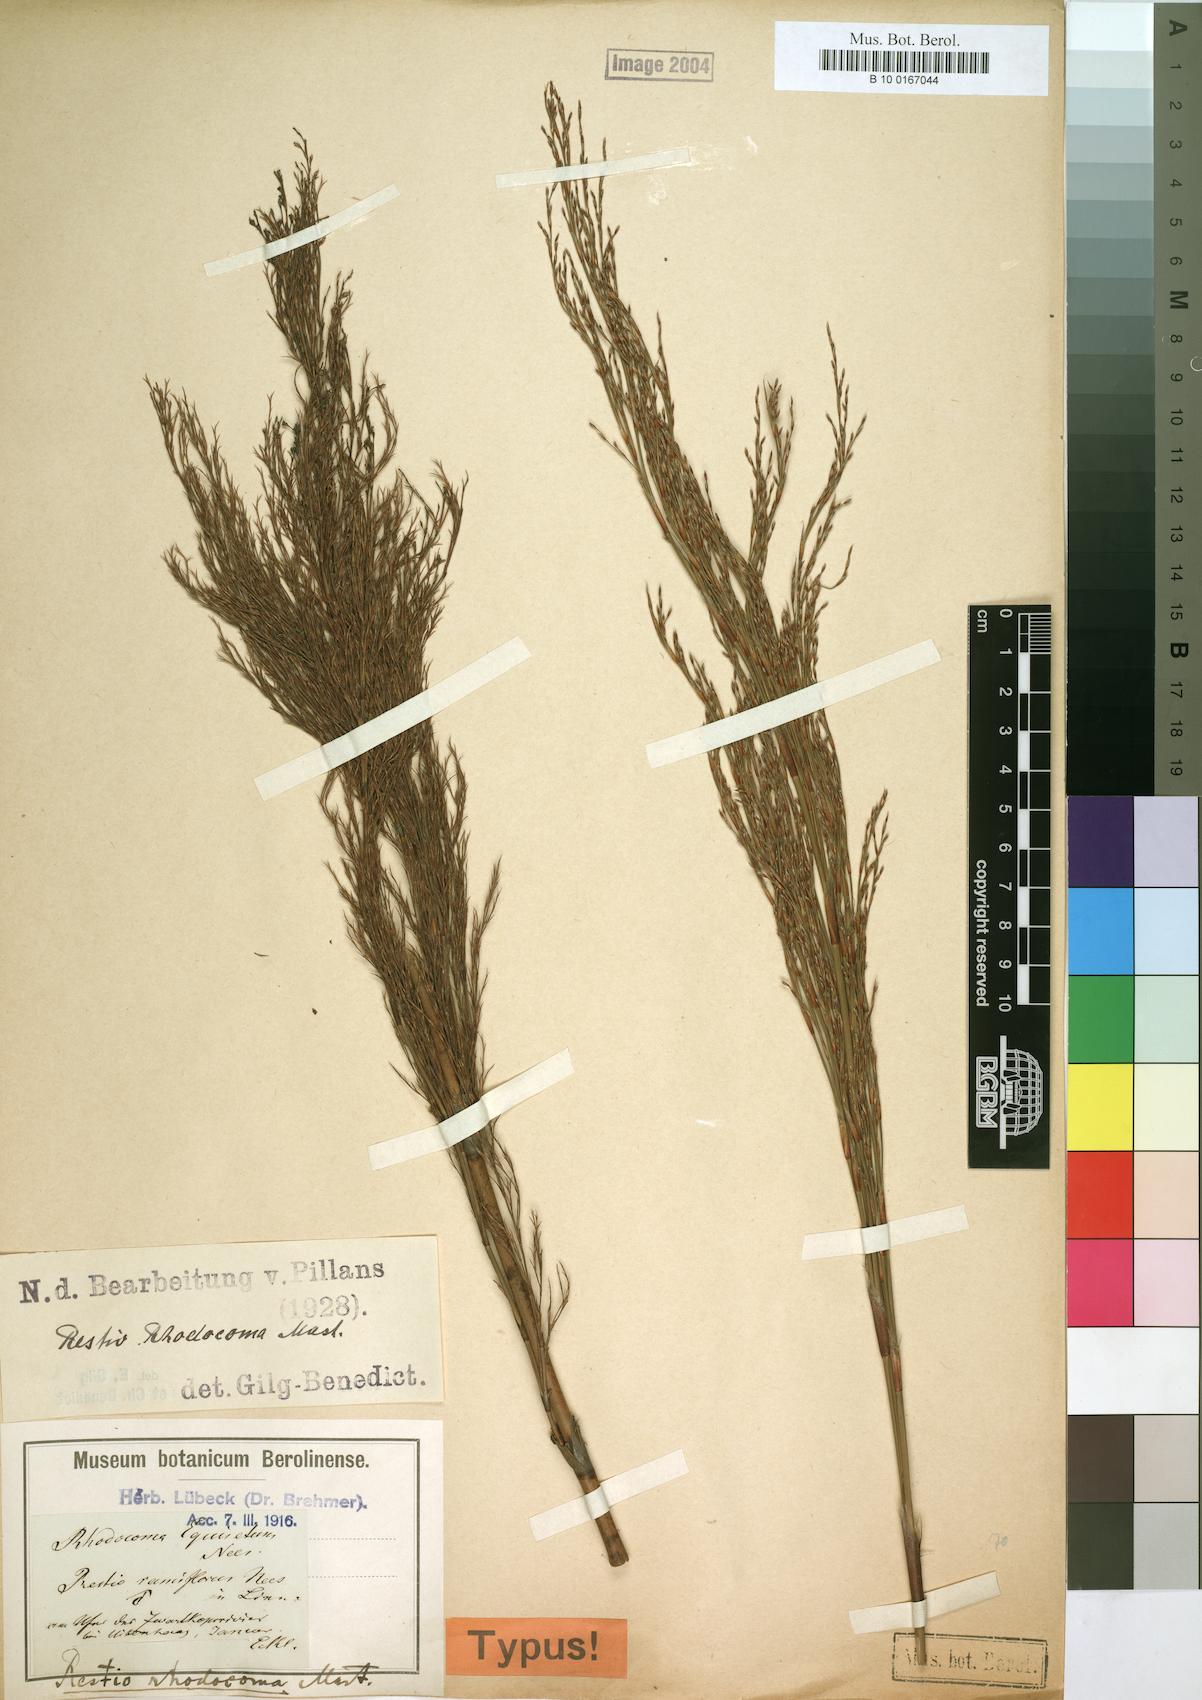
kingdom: Plantae
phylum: Tracheophyta
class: Liliopsida
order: Poales
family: Restionaceae
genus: Rhodocoma
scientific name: Rhodocoma capensis
